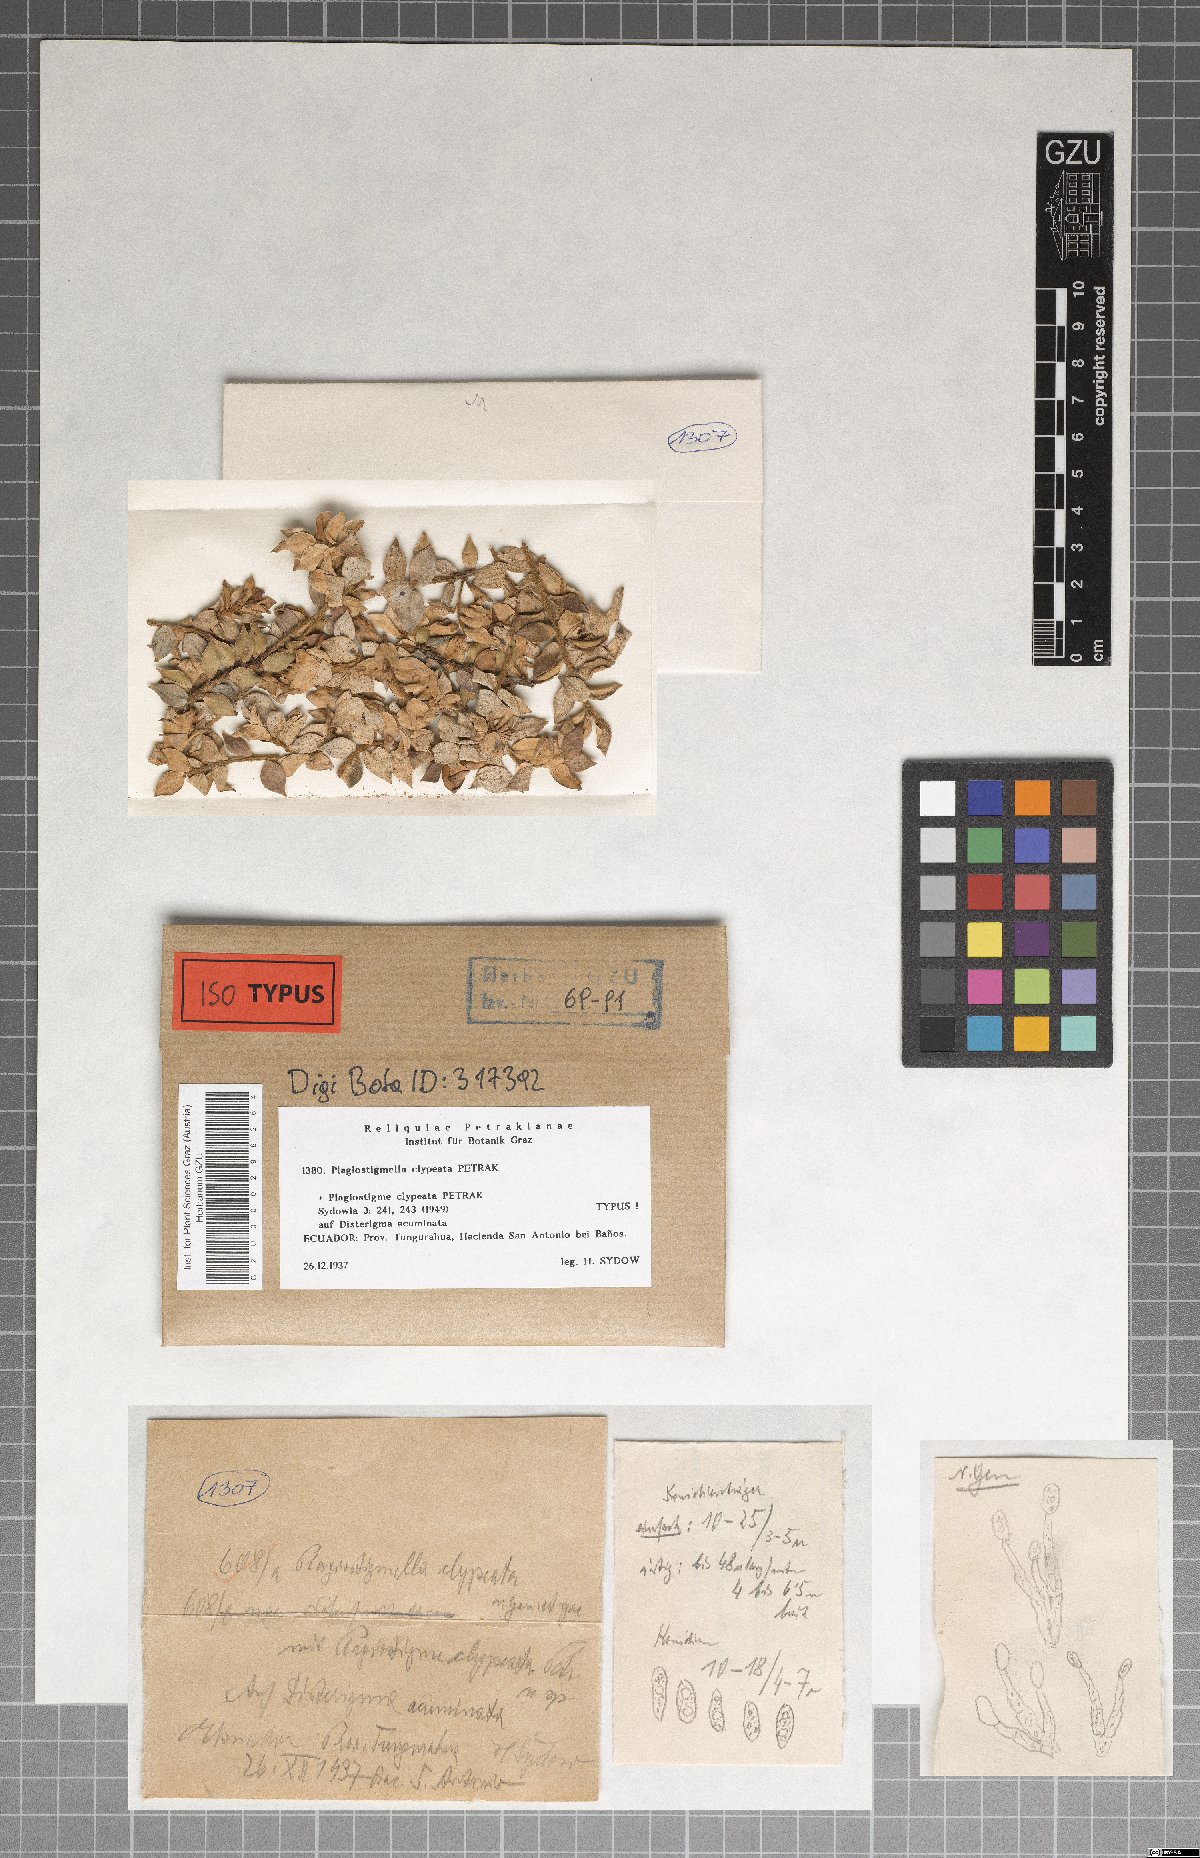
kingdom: Fungi
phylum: Ascomycota
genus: Plagiostigmella
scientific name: Plagiostigmella clypeata
